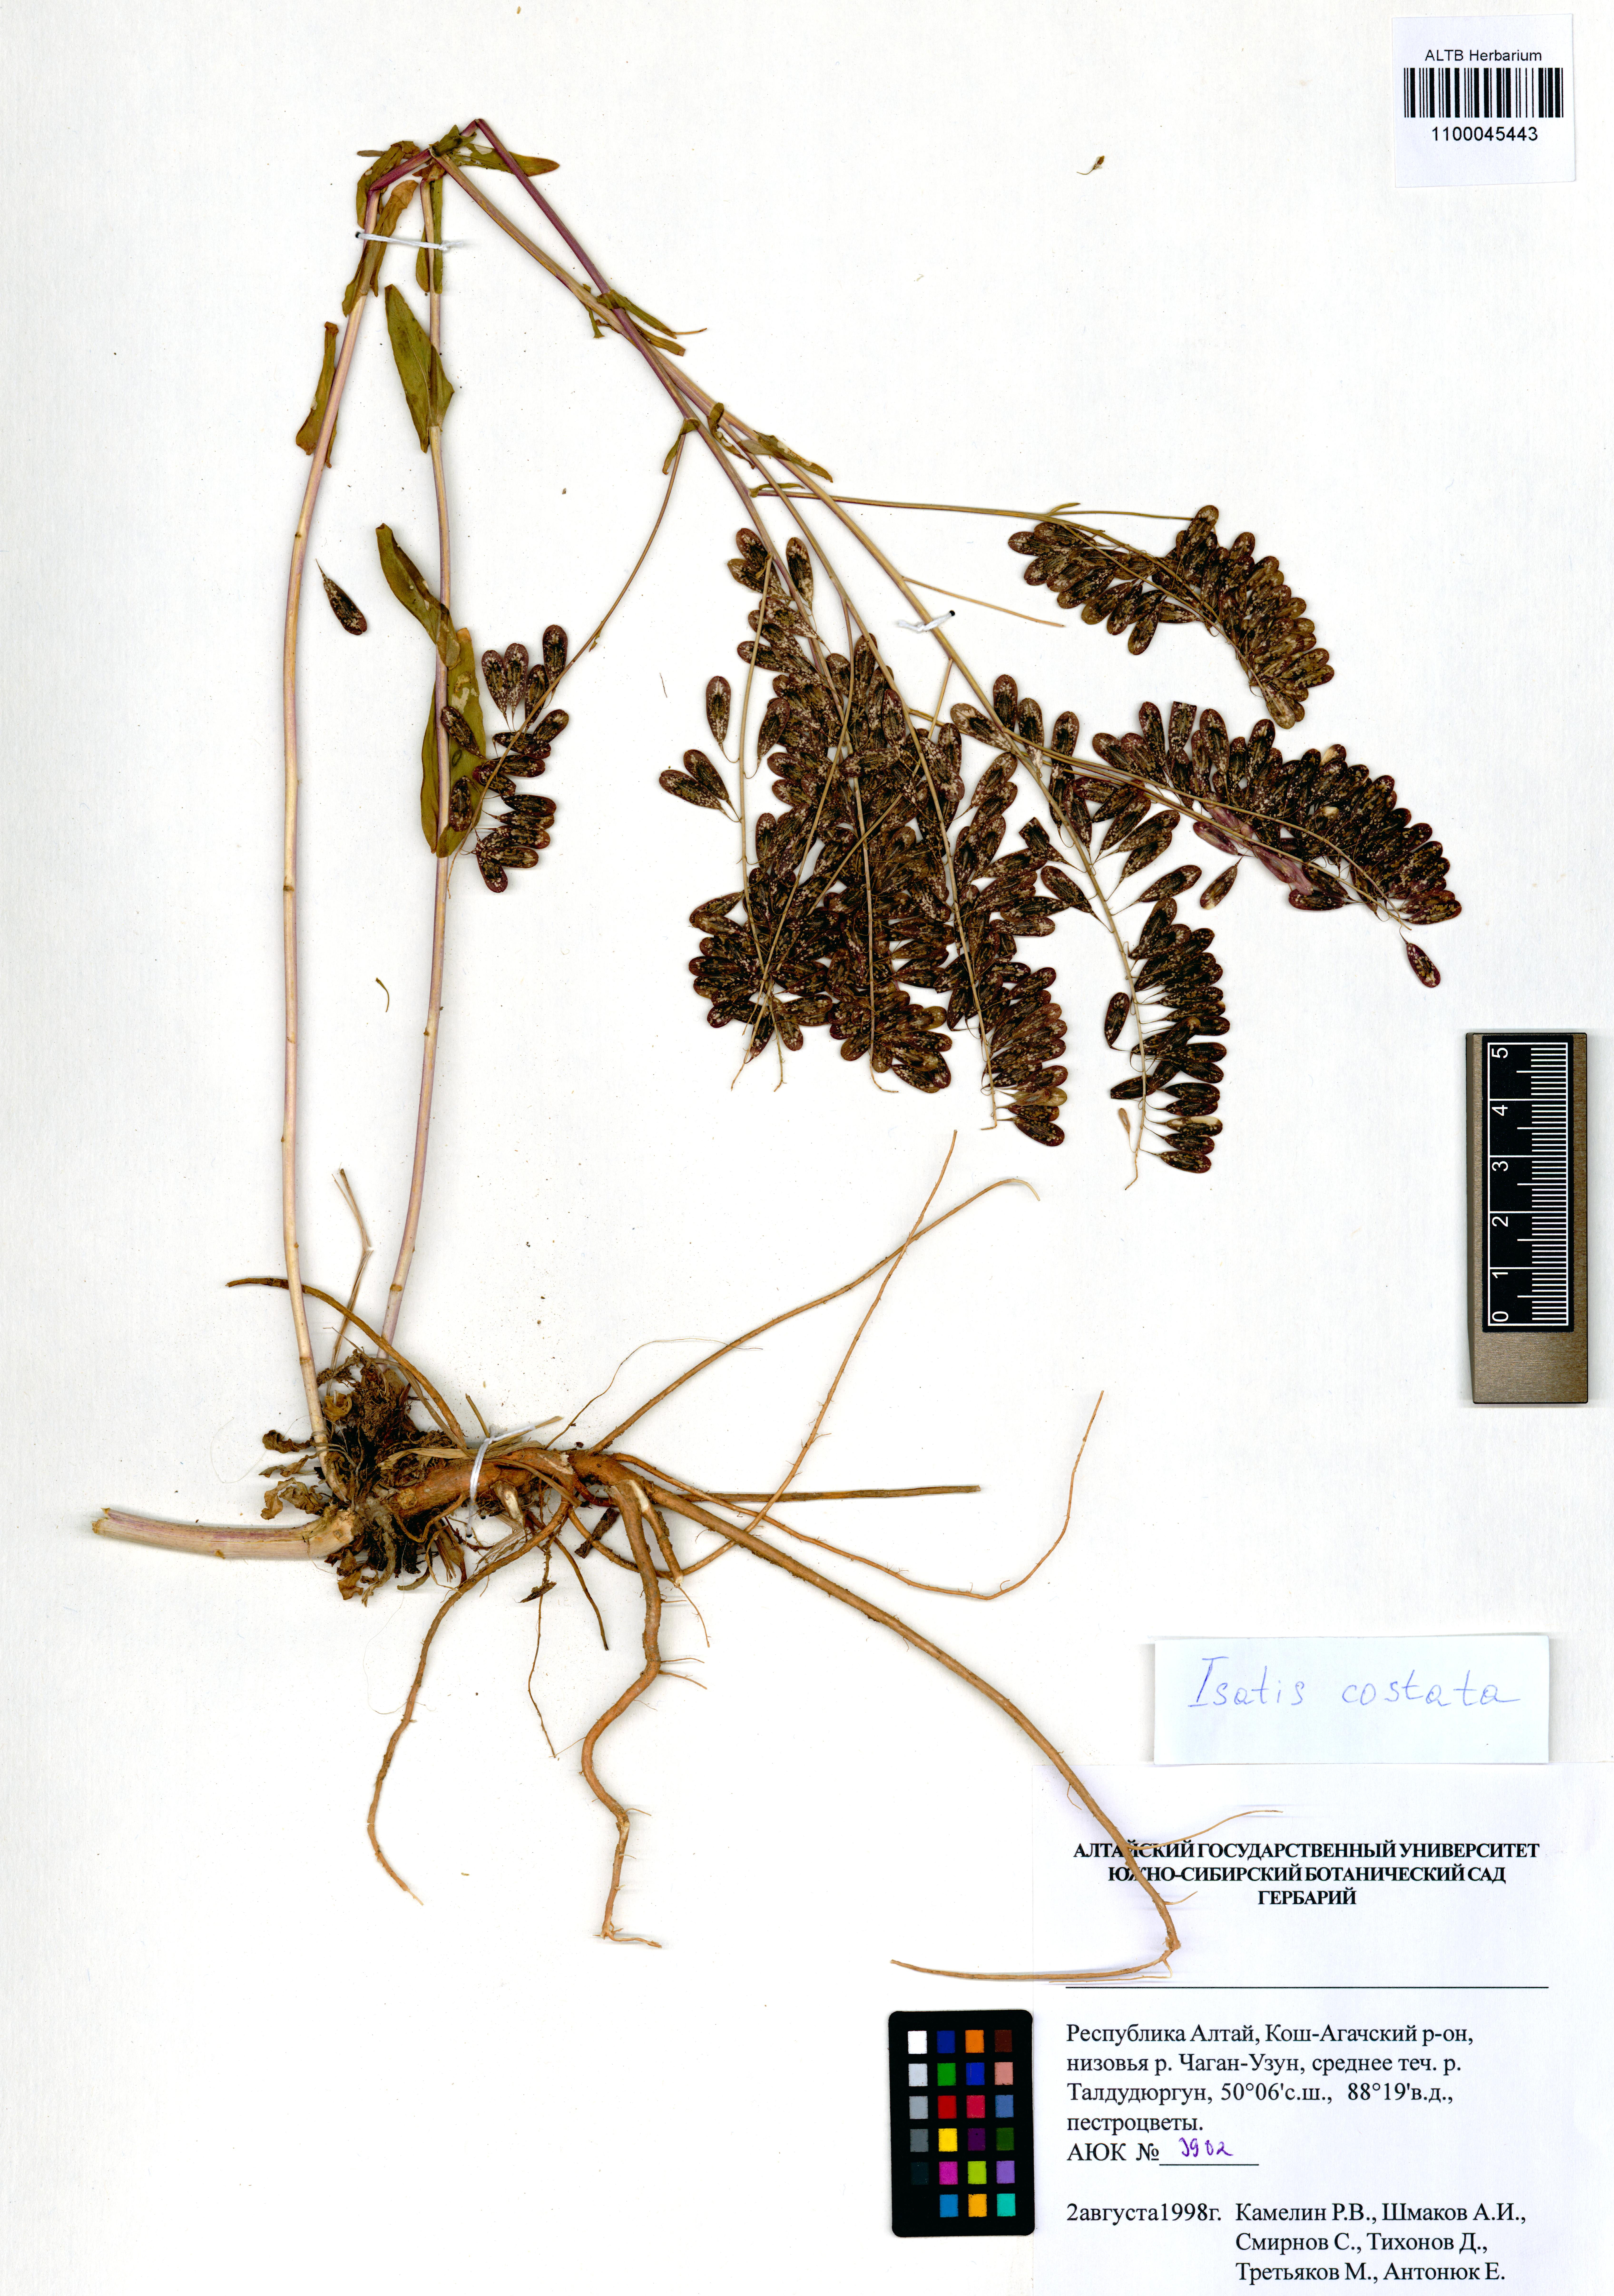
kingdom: Plantae
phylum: Tracheophyta
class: Magnoliopsida
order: Brassicales
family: Brassicaceae
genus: Isatis
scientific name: Isatis costata
